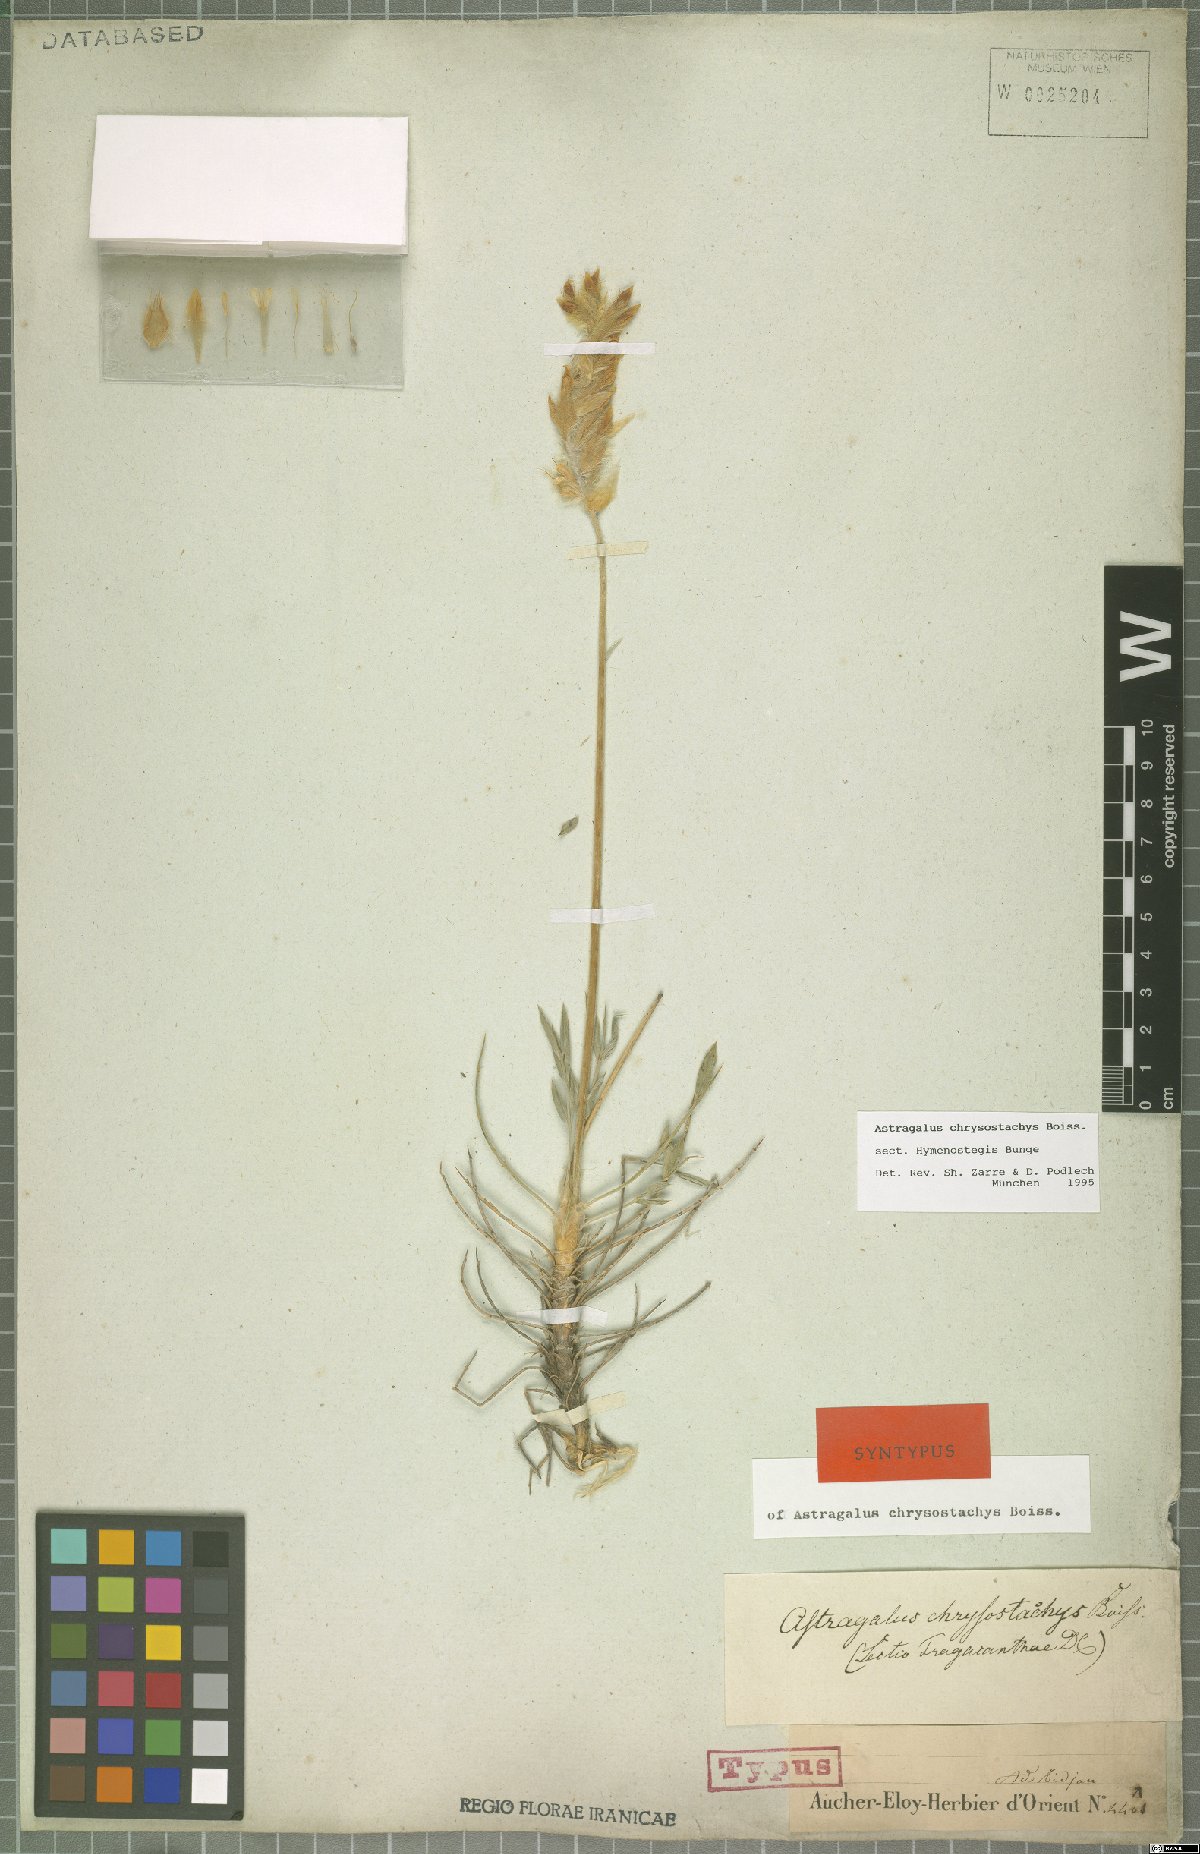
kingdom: Plantae
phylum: Tracheophyta
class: Magnoliopsida
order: Fabales
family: Fabaceae
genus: Astragalus
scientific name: Astragalus chrysostachys
